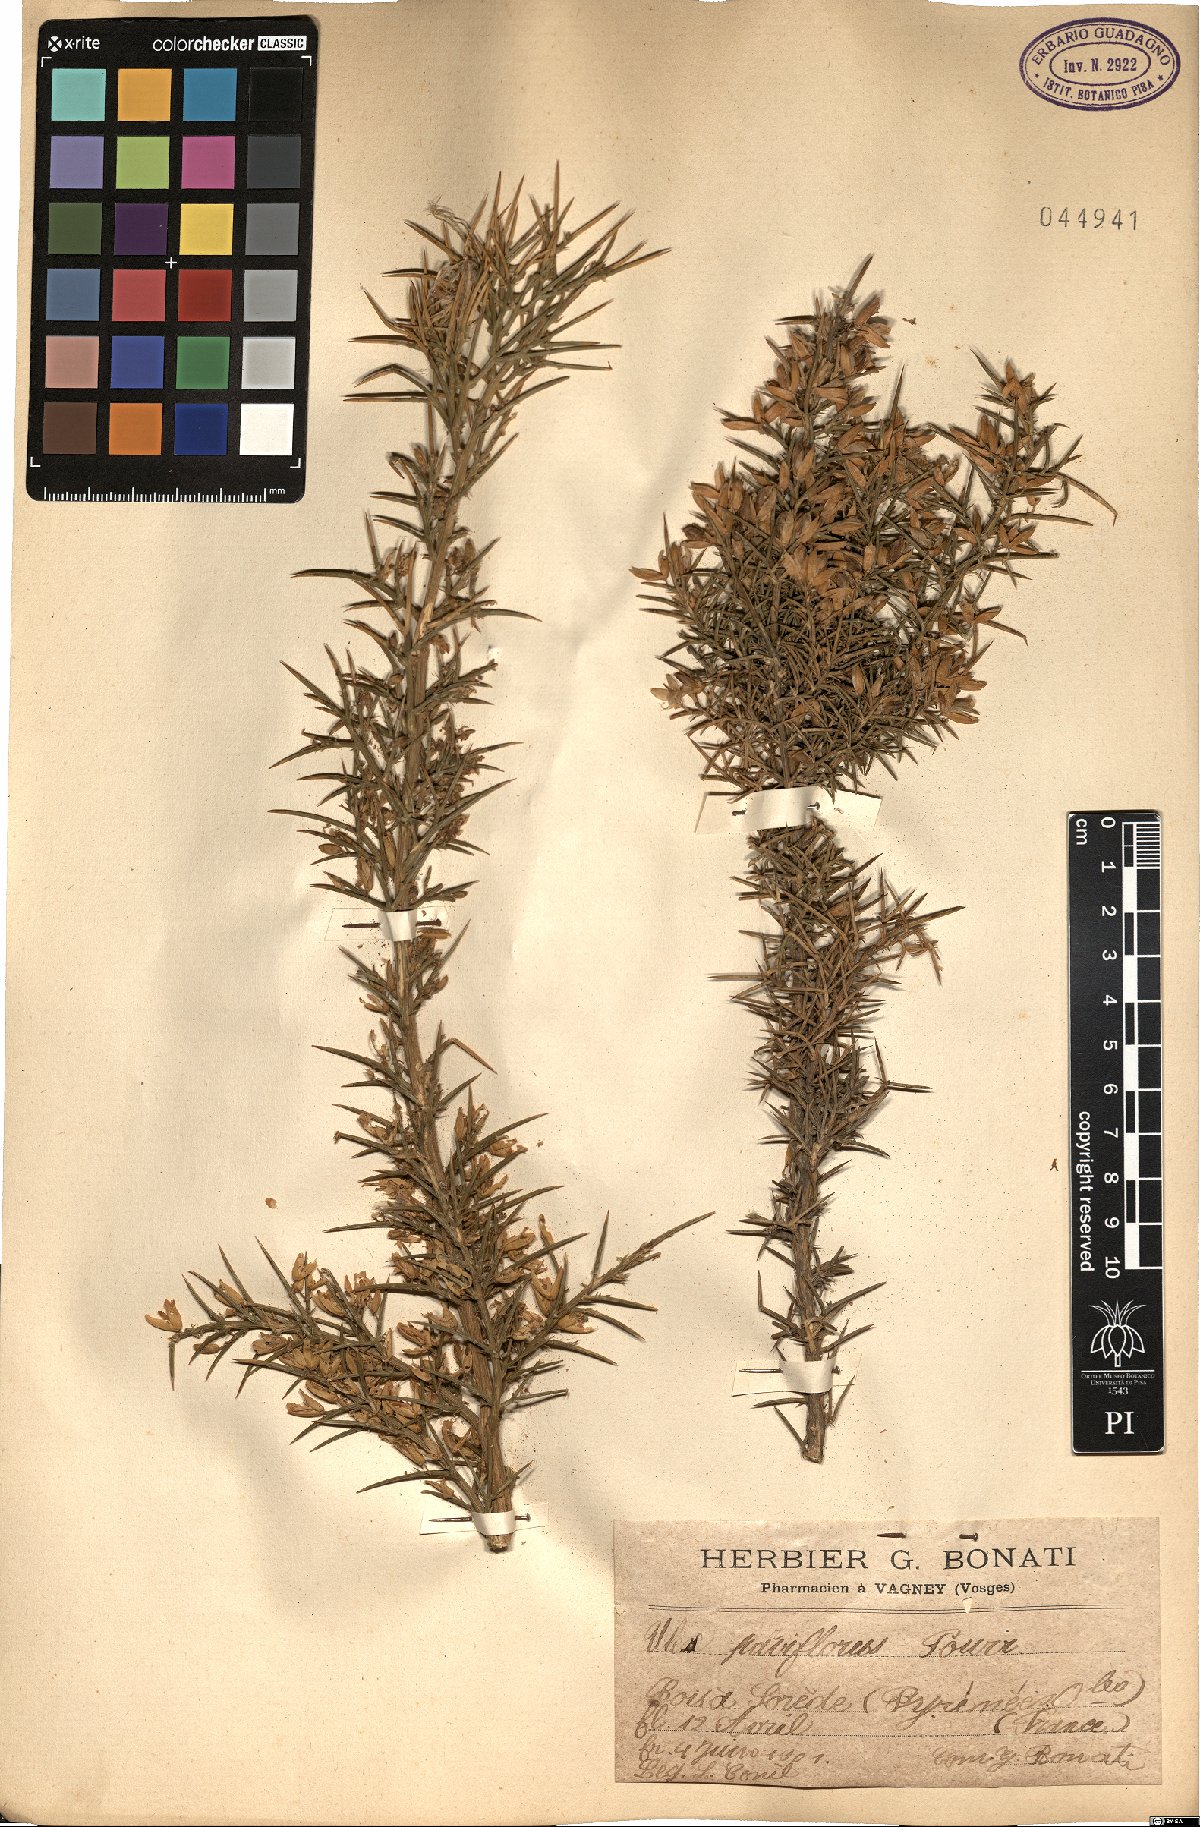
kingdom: Plantae
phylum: Tracheophyta
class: Magnoliopsida
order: Fabales
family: Fabaceae
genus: Ulex
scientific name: Ulex parviflorus
